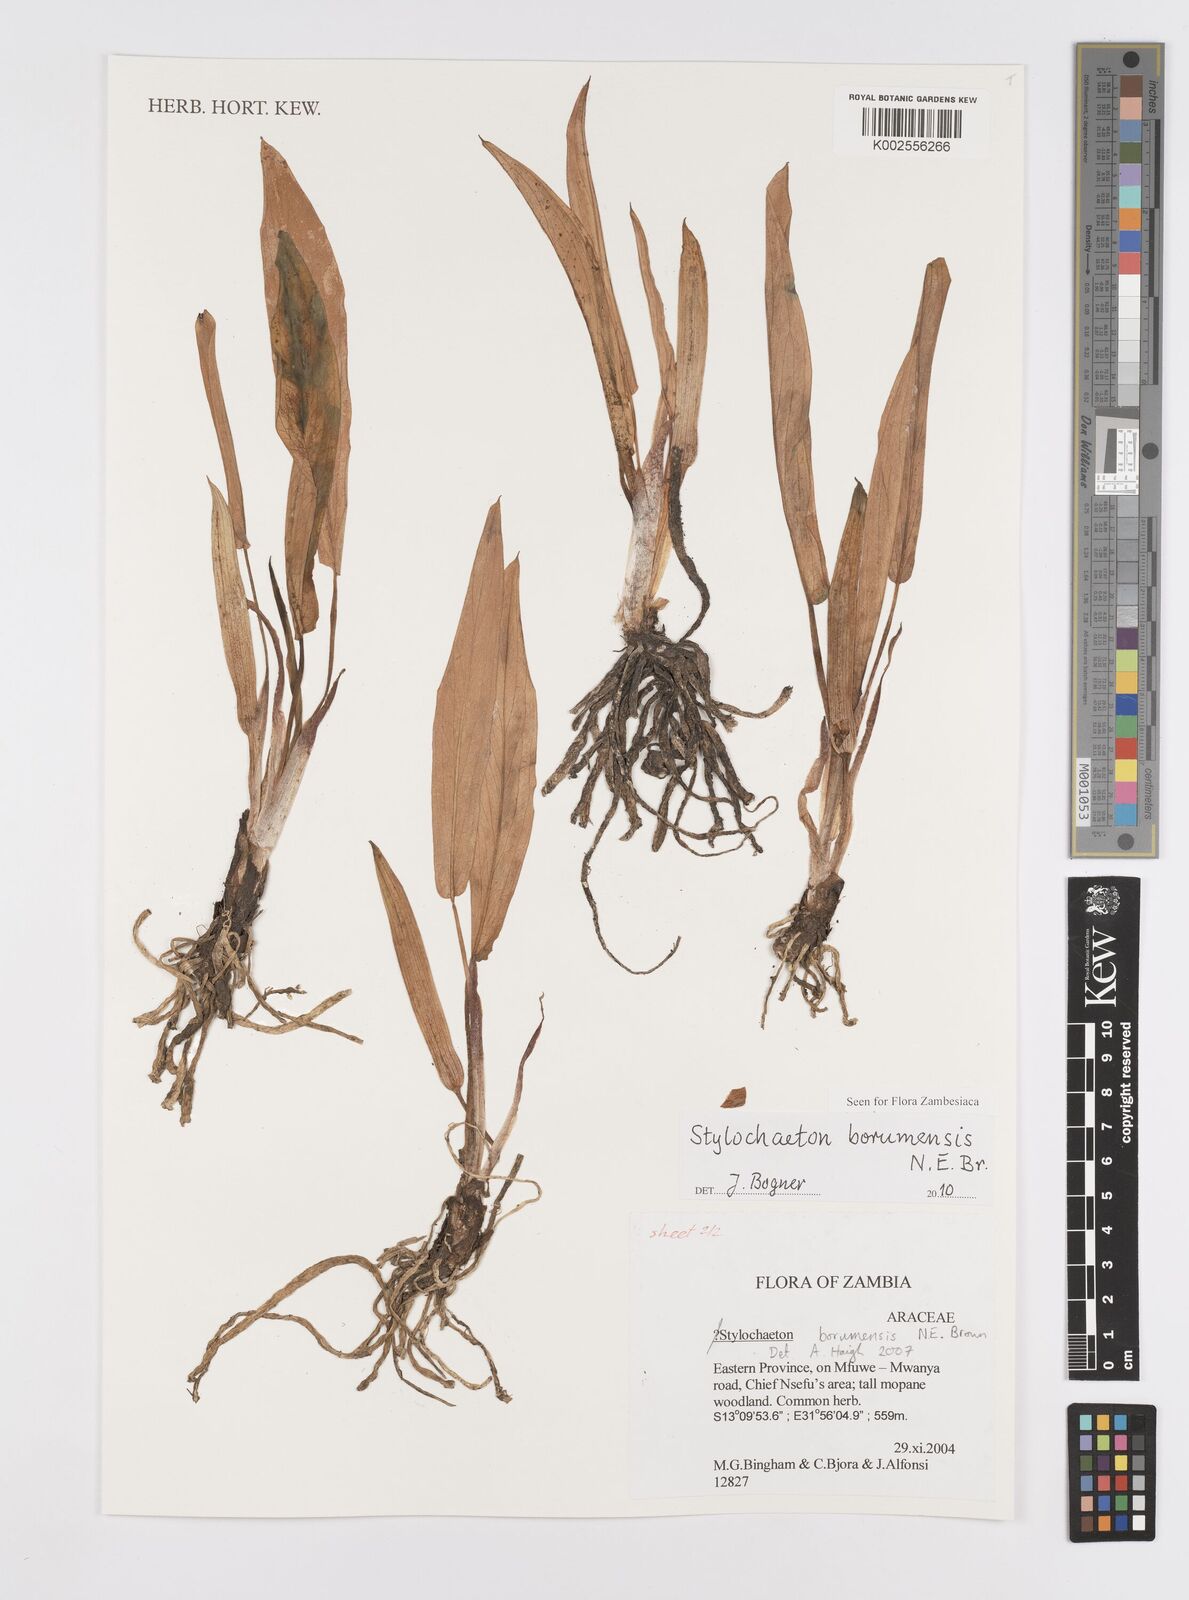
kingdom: Plantae
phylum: Tracheophyta
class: Liliopsida
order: Alismatales
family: Araceae
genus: Stylochaeton
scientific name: Stylochaeton borumense
